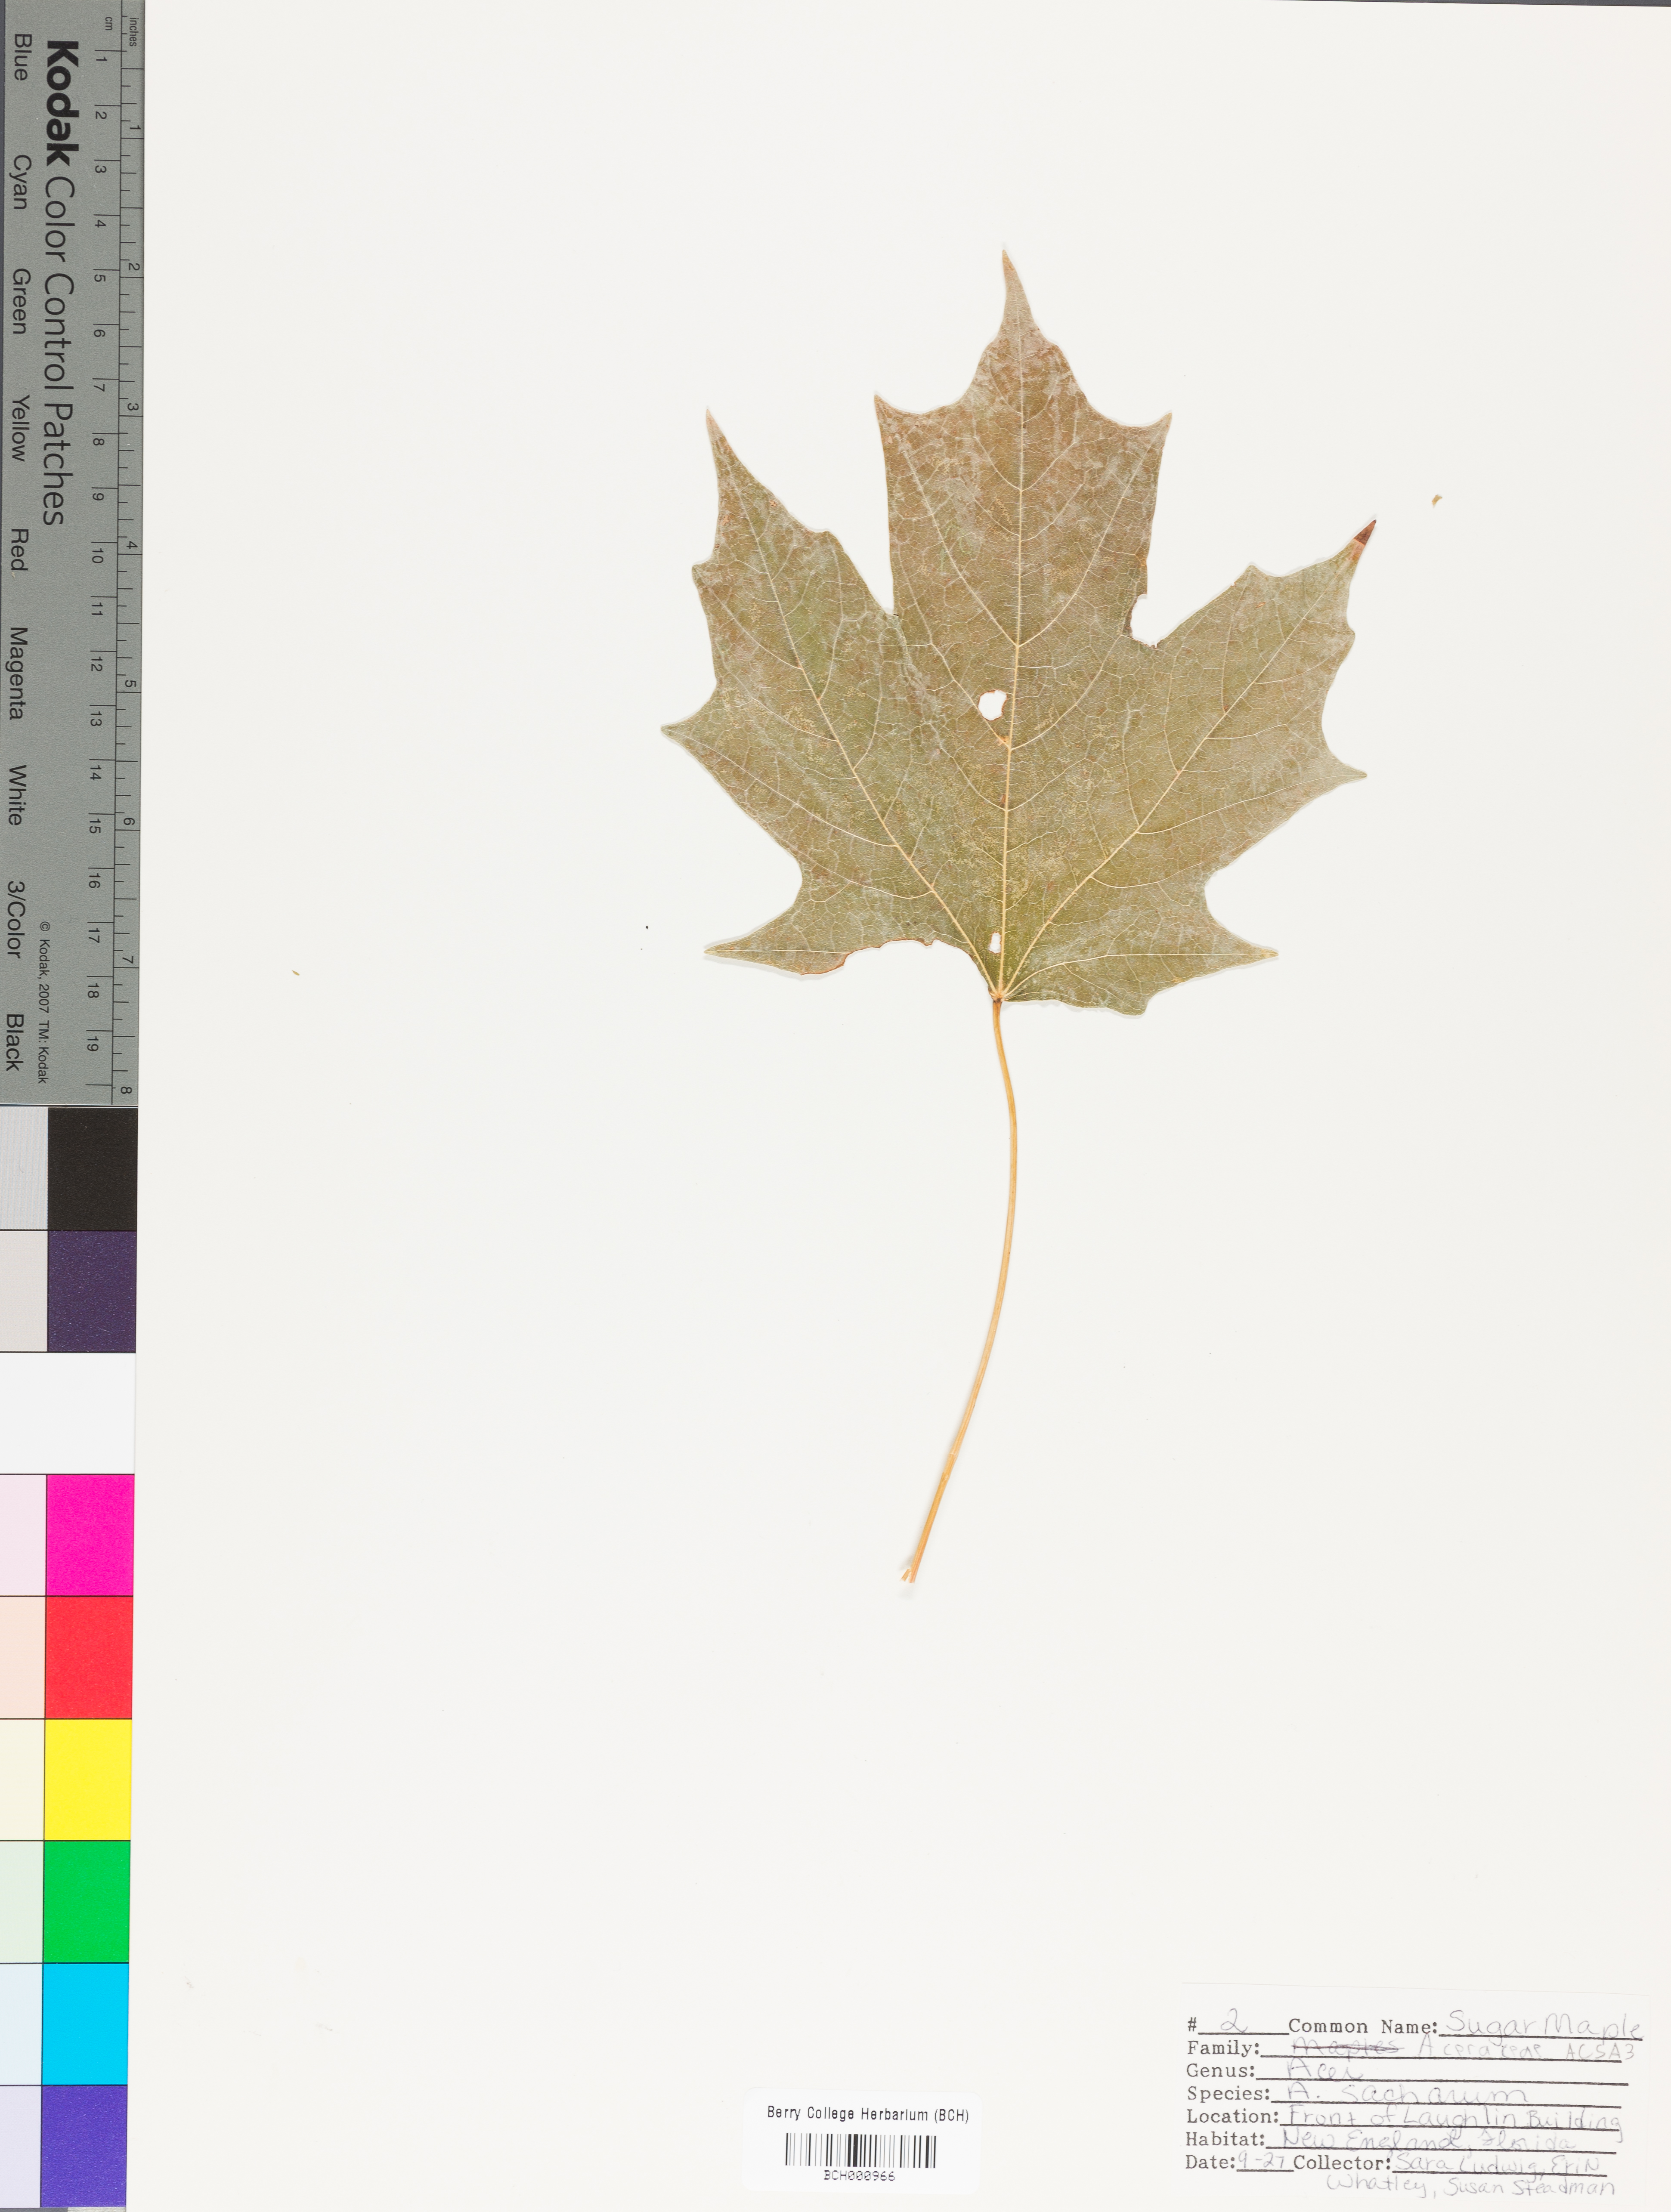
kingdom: Plantae
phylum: Tracheophyta
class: Magnoliopsida
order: Sapindales
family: Sapindaceae
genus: Acer
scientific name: Acer saccharum
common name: Sugar maple
